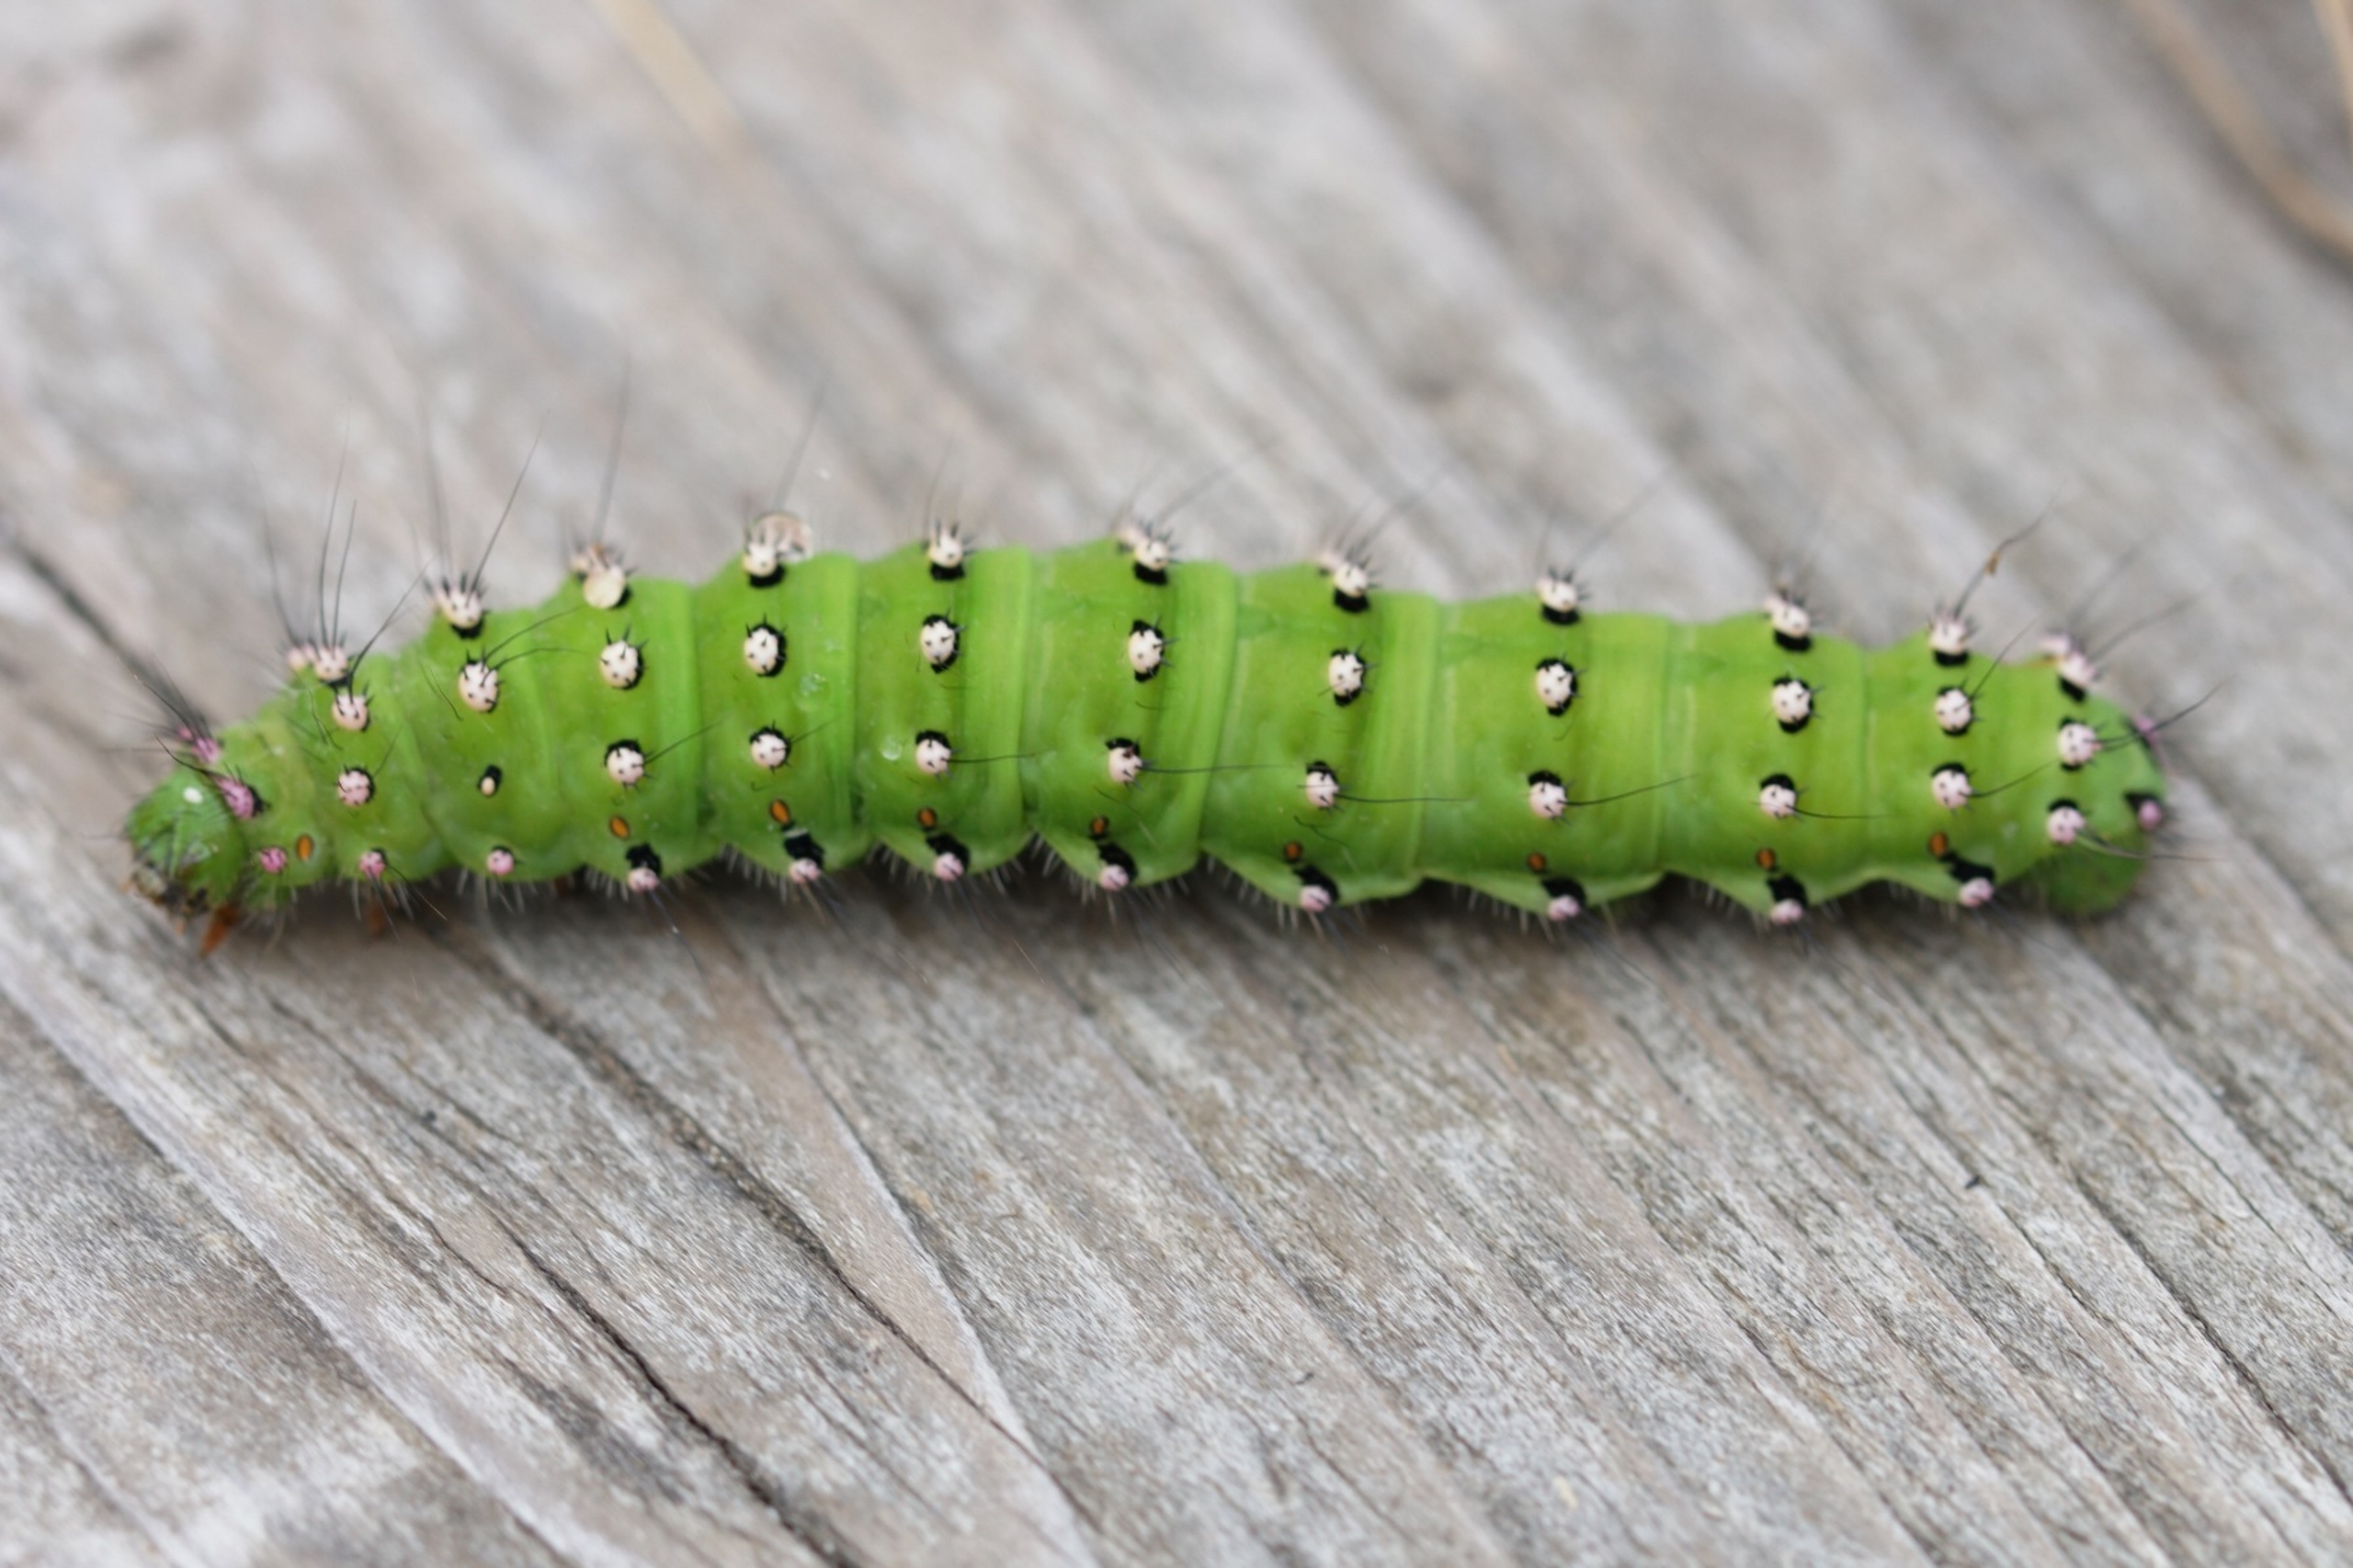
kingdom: Animalia
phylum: Arthropoda
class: Insecta
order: Lepidoptera
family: Saturniidae
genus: Saturnia
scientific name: Saturnia pavonia
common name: Lille natpåfugleøje
